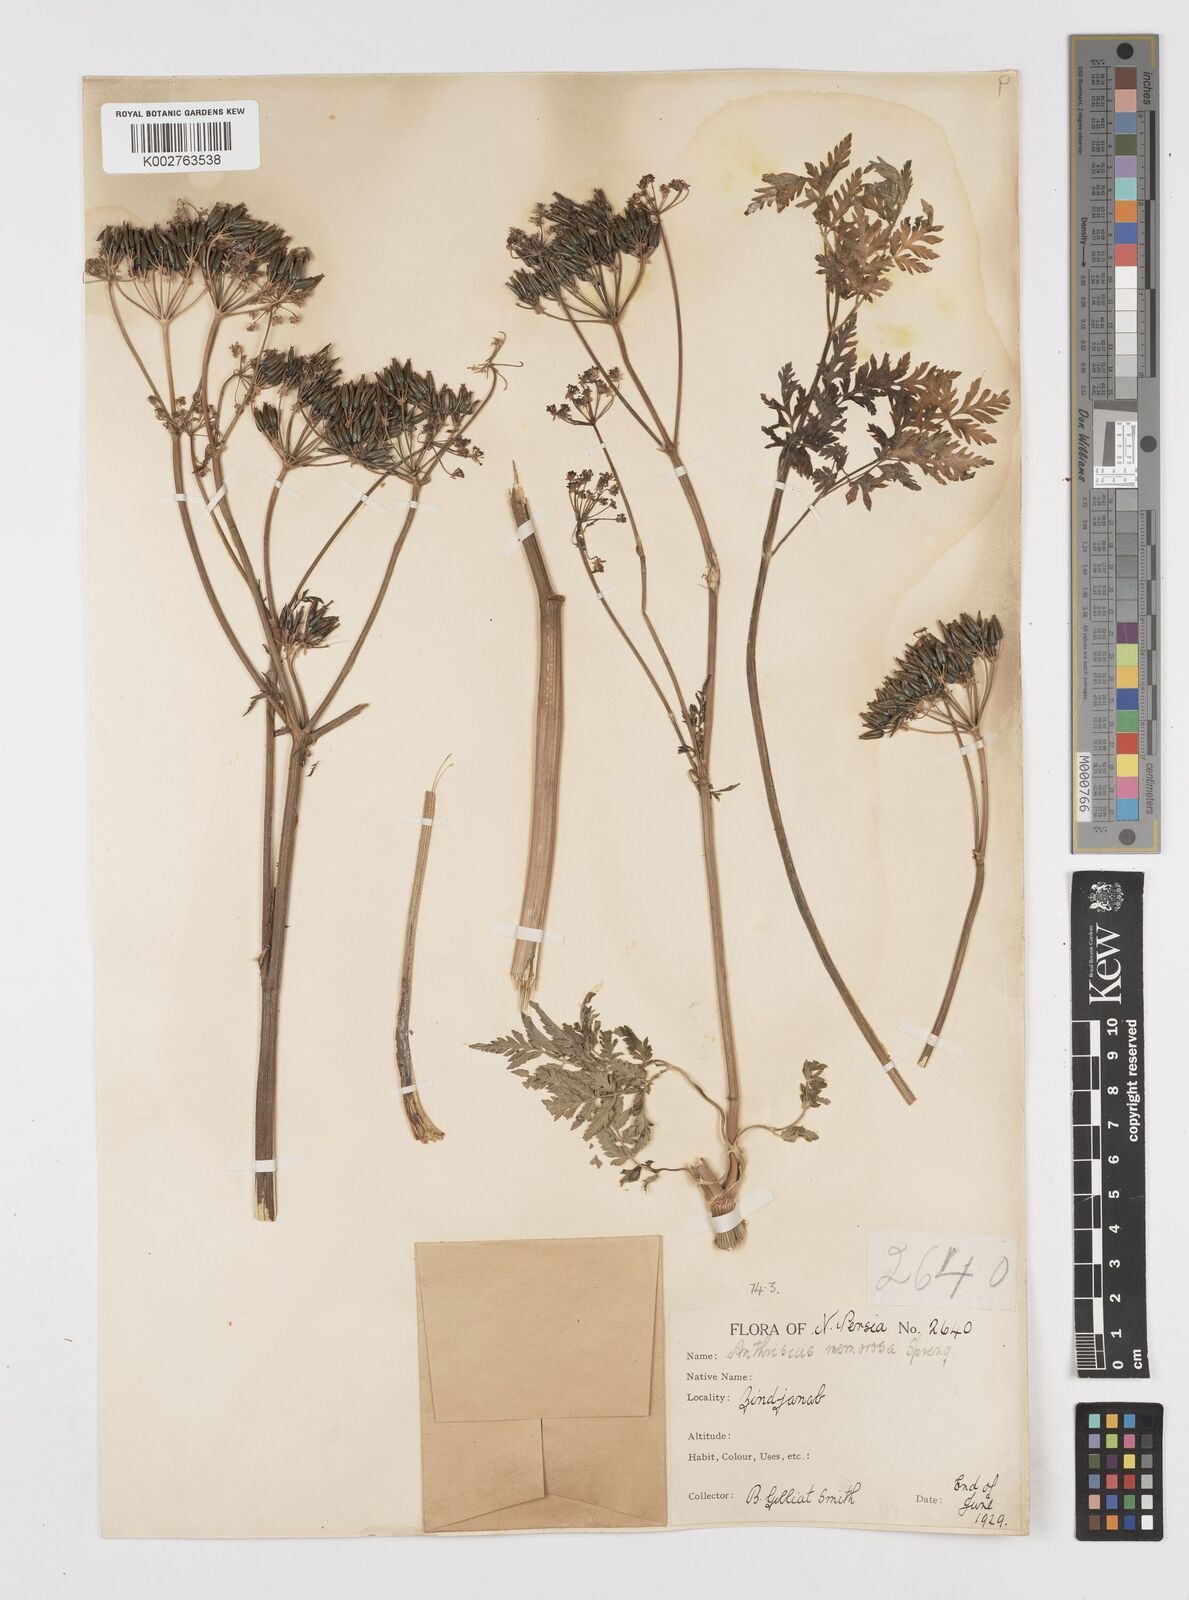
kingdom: Plantae
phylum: Tracheophyta
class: Magnoliopsida
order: Apiales
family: Apiaceae
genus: Anthriscus
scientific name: Anthriscus sylvestris
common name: Cow parsley
